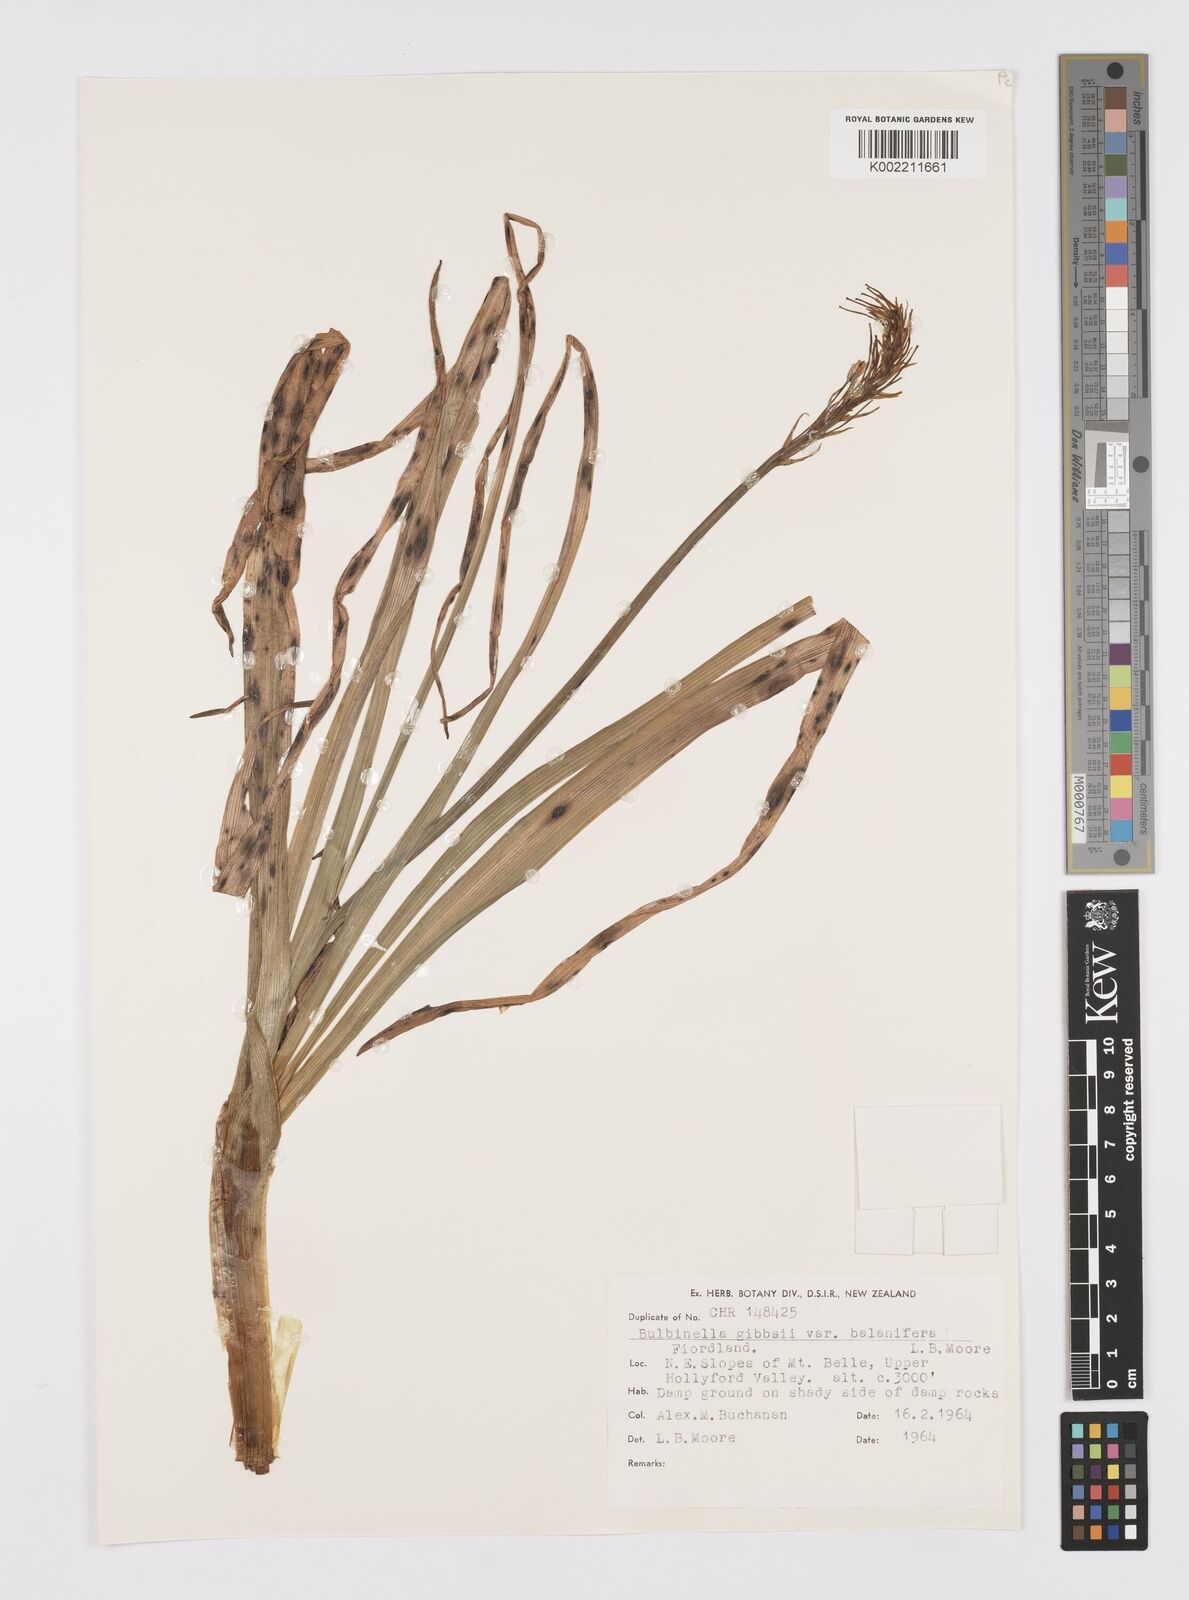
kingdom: Plantae
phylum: Tracheophyta
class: Liliopsida
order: Asparagales
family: Asphodelaceae
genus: Bulbinella
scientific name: Bulbinella gibbsii
